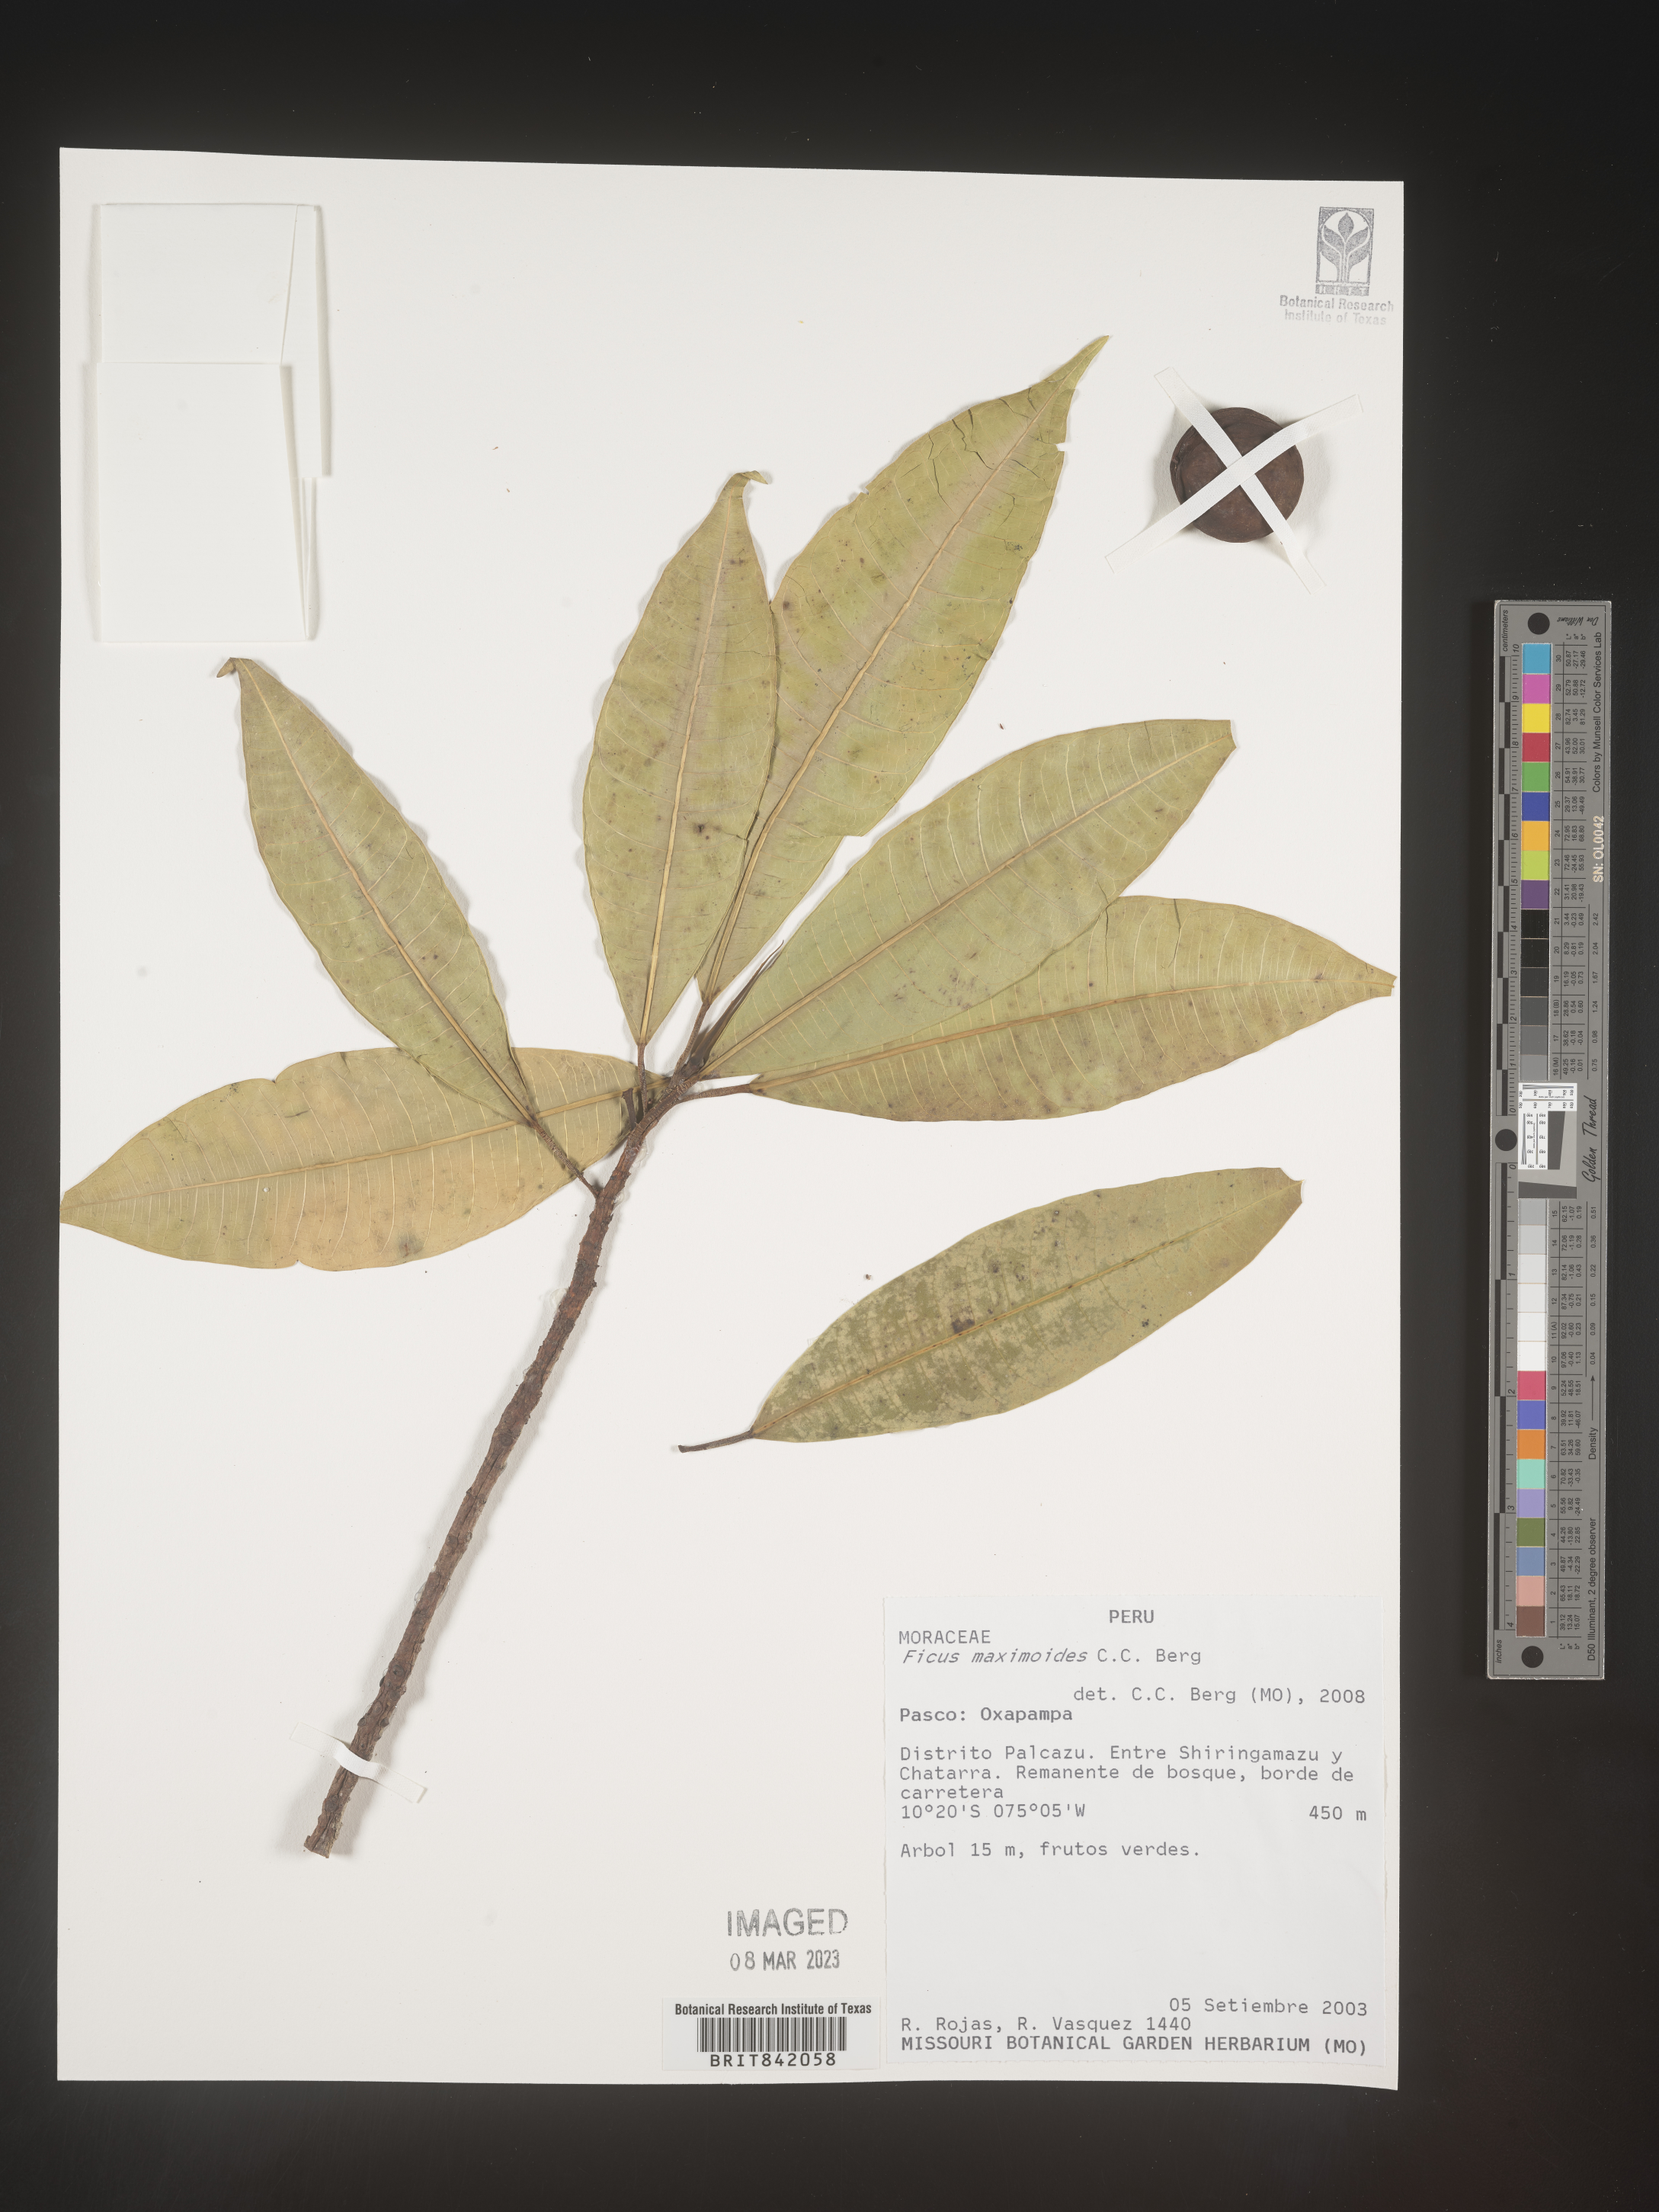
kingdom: Plantae
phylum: Tracheophyta
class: Magnoliopsida
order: Rosales
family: Moraceae
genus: Ficus
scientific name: Ficus maximoides
